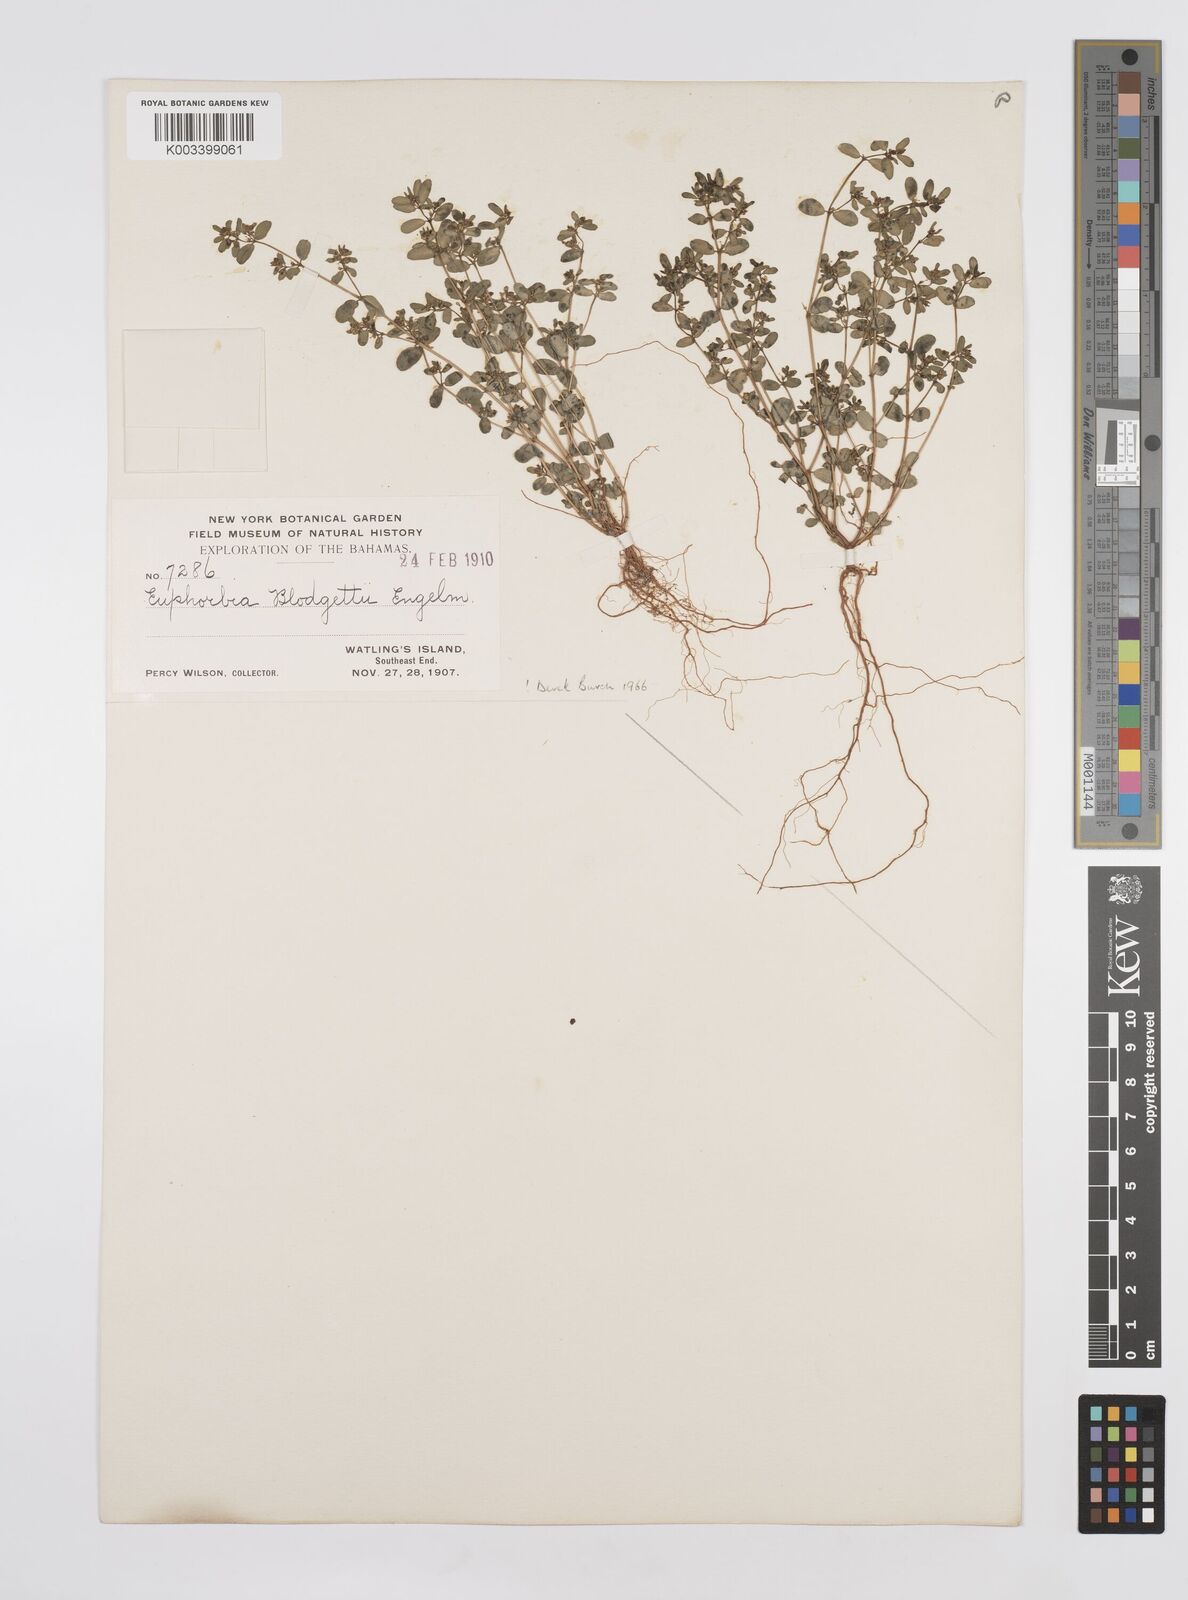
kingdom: Plantae
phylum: Tracheophyta
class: Magnoliopsida
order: Malpighiales
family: Euphorbiaceae
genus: Euphorbia
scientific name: Euphorbia blodgettii
